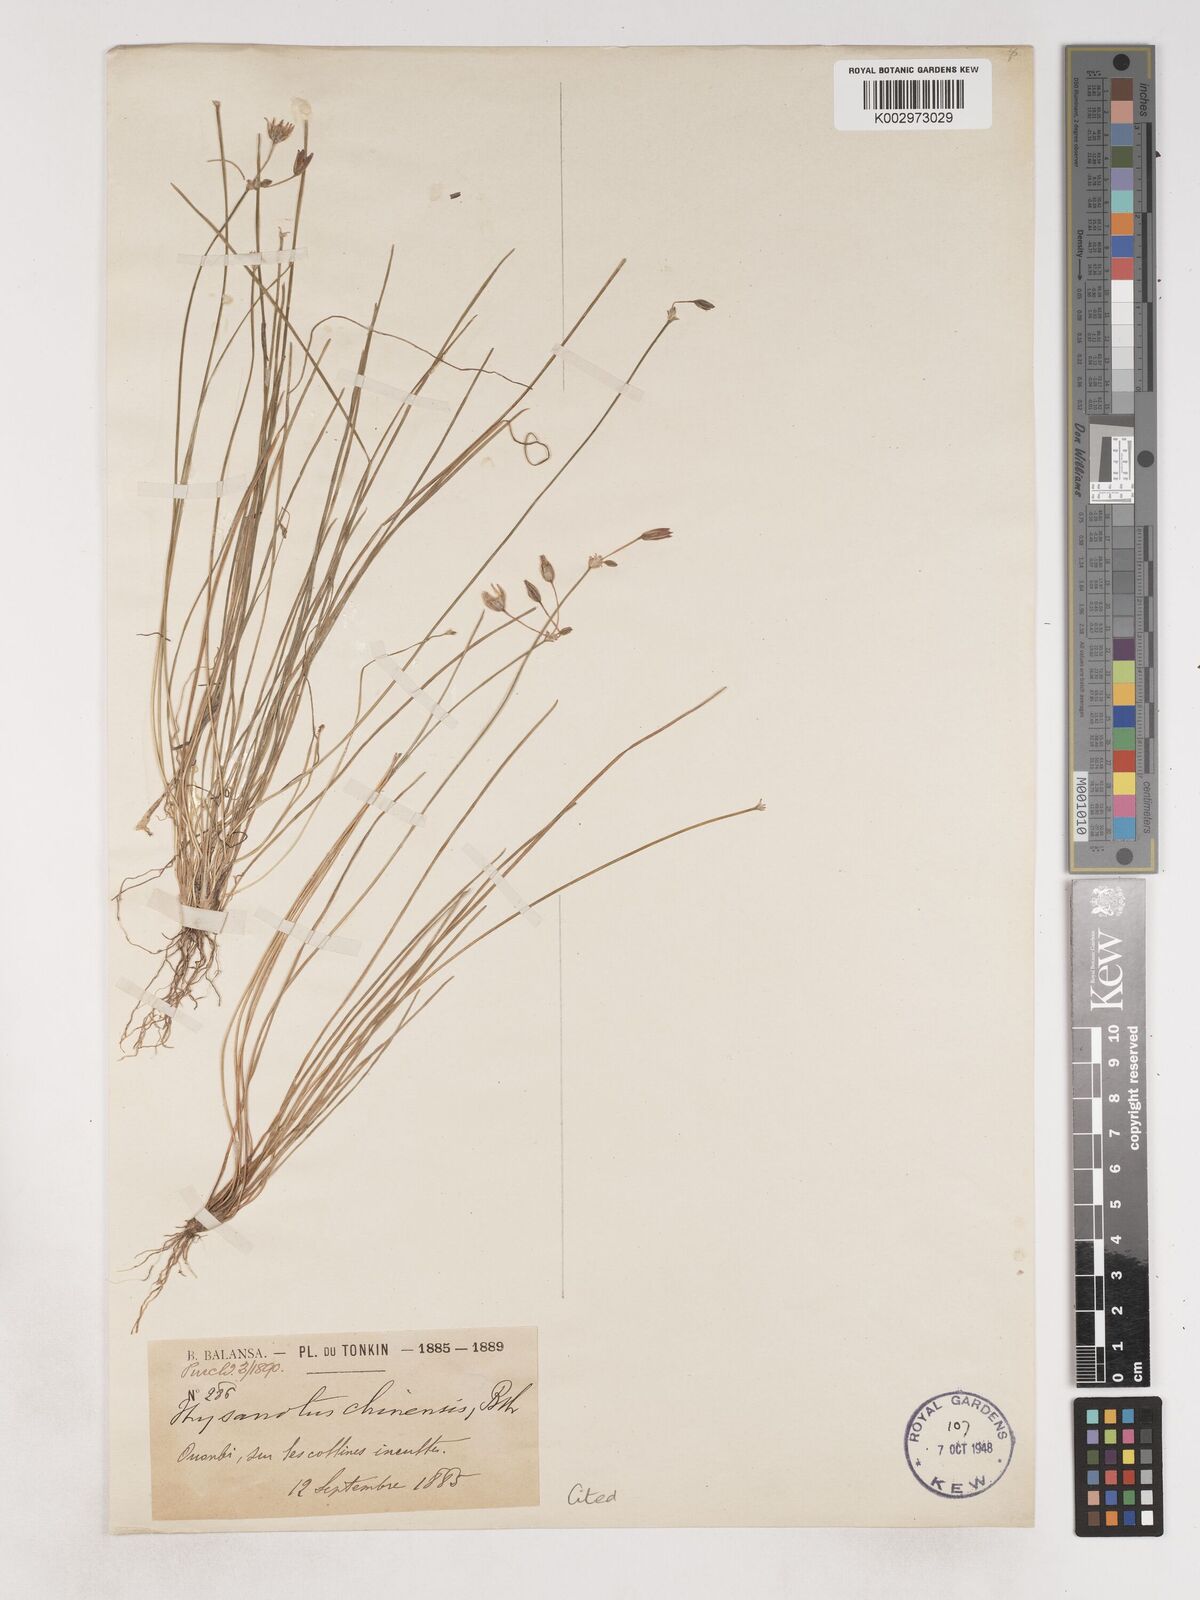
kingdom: Plantae
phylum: Tracheophyta
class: Liliopsida
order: Asparagales
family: Asparagaceae
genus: Thysanotus
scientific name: Thysanotus chinensis
